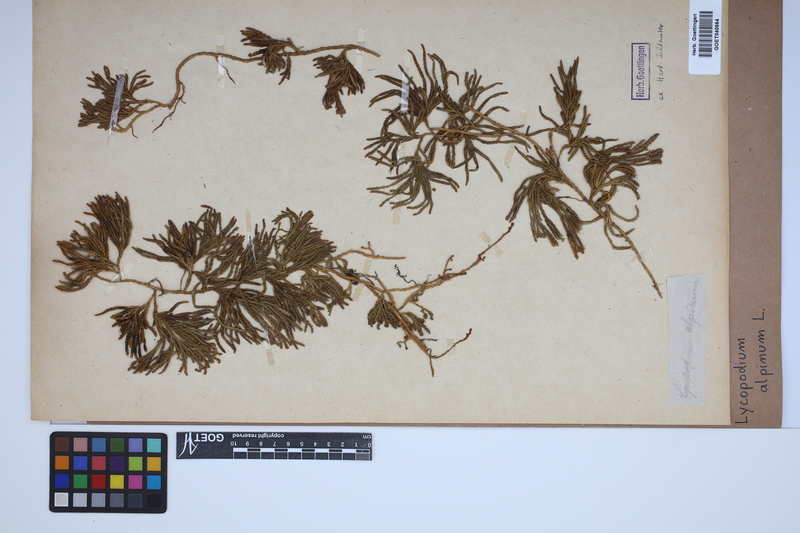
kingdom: Plantae
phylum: Tracheophyta
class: Lycopodiopsida
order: Lycopodiales
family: Lycopodiaceae
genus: Diphasiastrum
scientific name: Diphasiastrum alpinum
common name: Alpine clubmoss
